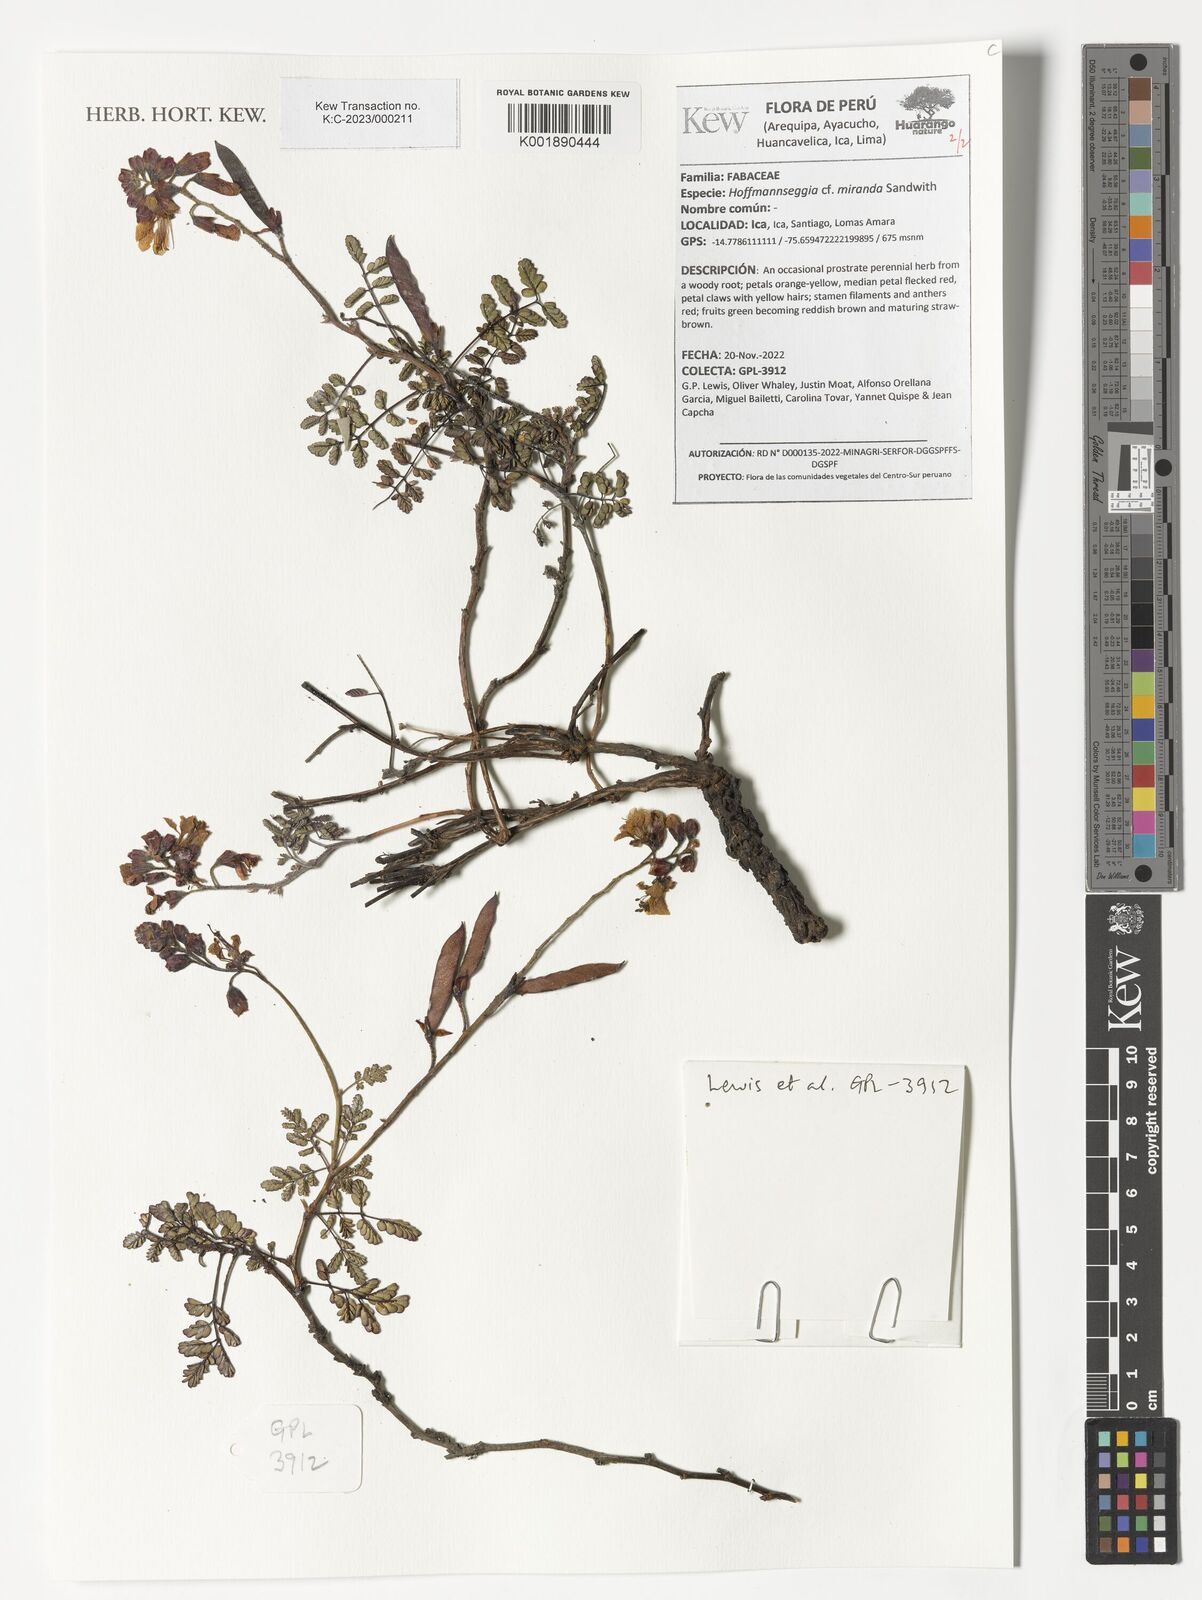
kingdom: Plantae
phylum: Tracheophyta
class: Magnoliopsida
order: Fabales
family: Fabaceae
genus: Hoffmannseggia
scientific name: Hoffmannseggia miranda
